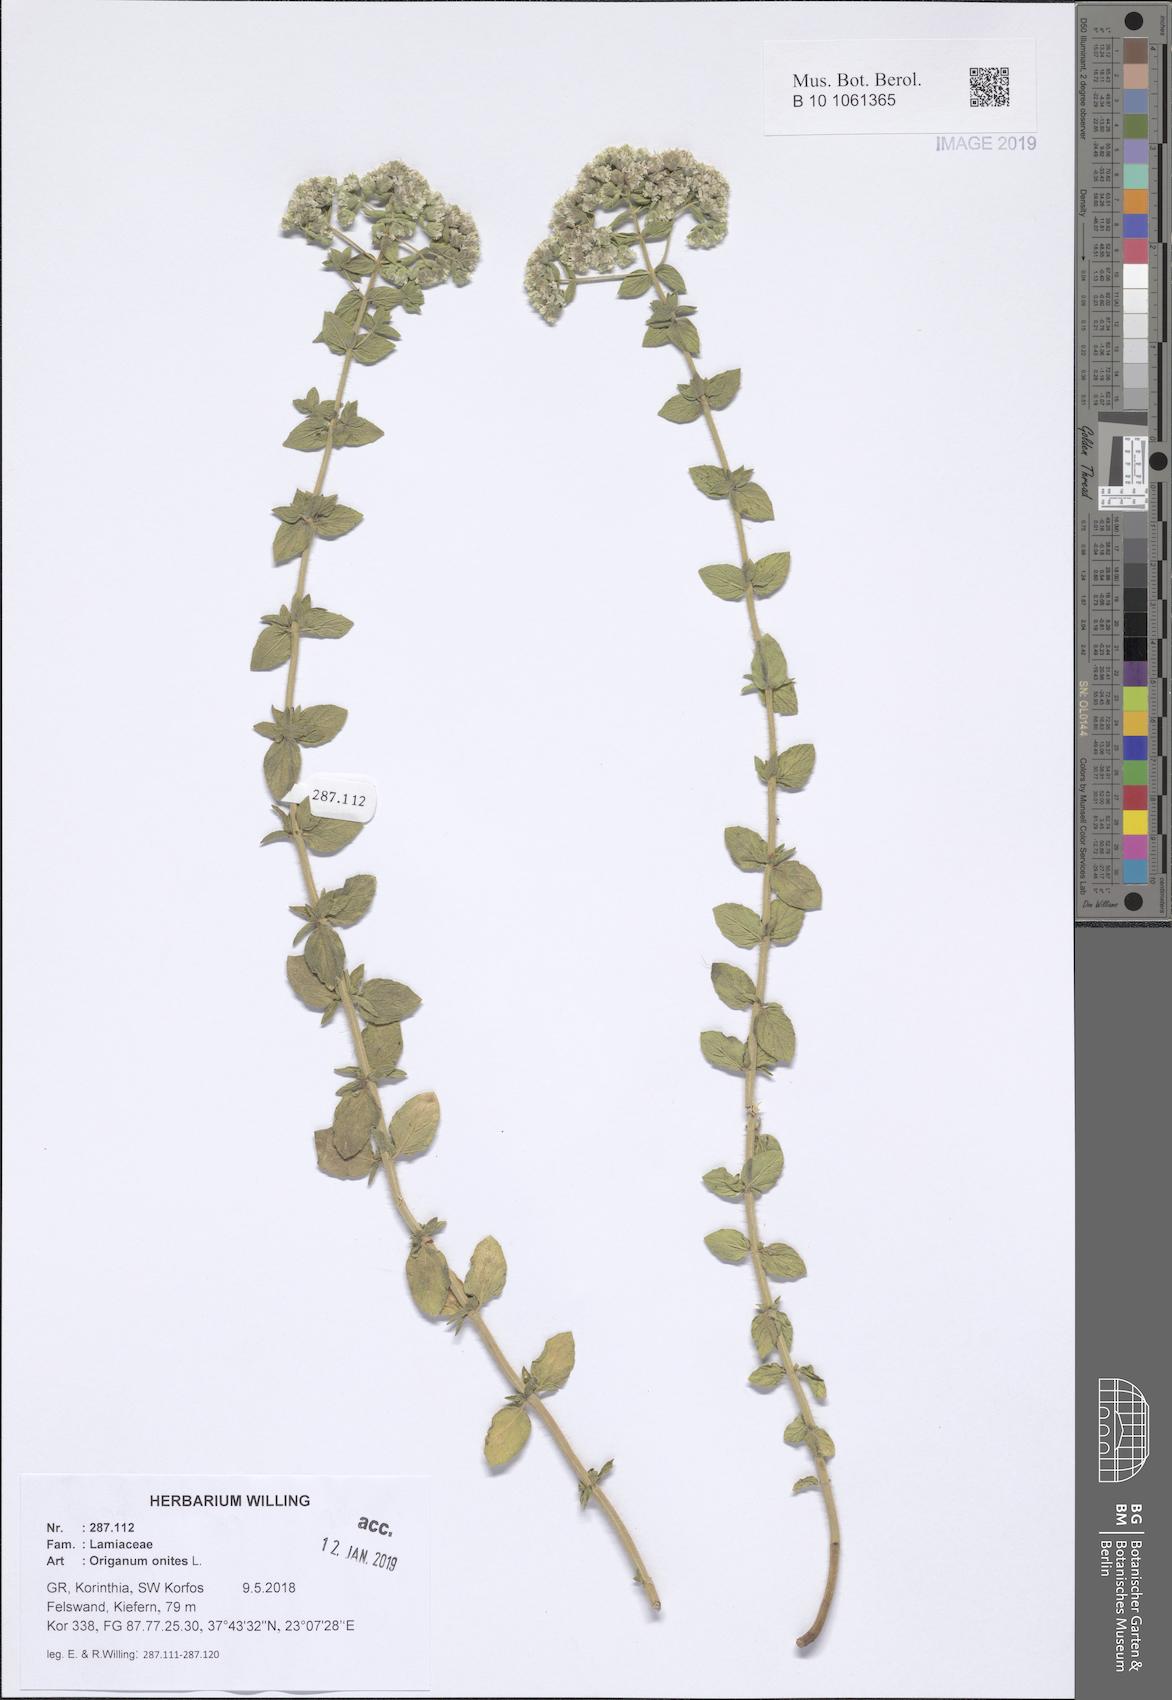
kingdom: Plantae
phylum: Tracheophyta
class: Magnoliopsida
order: Lamiales
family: Lamiaceae
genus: Origanum
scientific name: Origanum onites
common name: Turkish oregano
